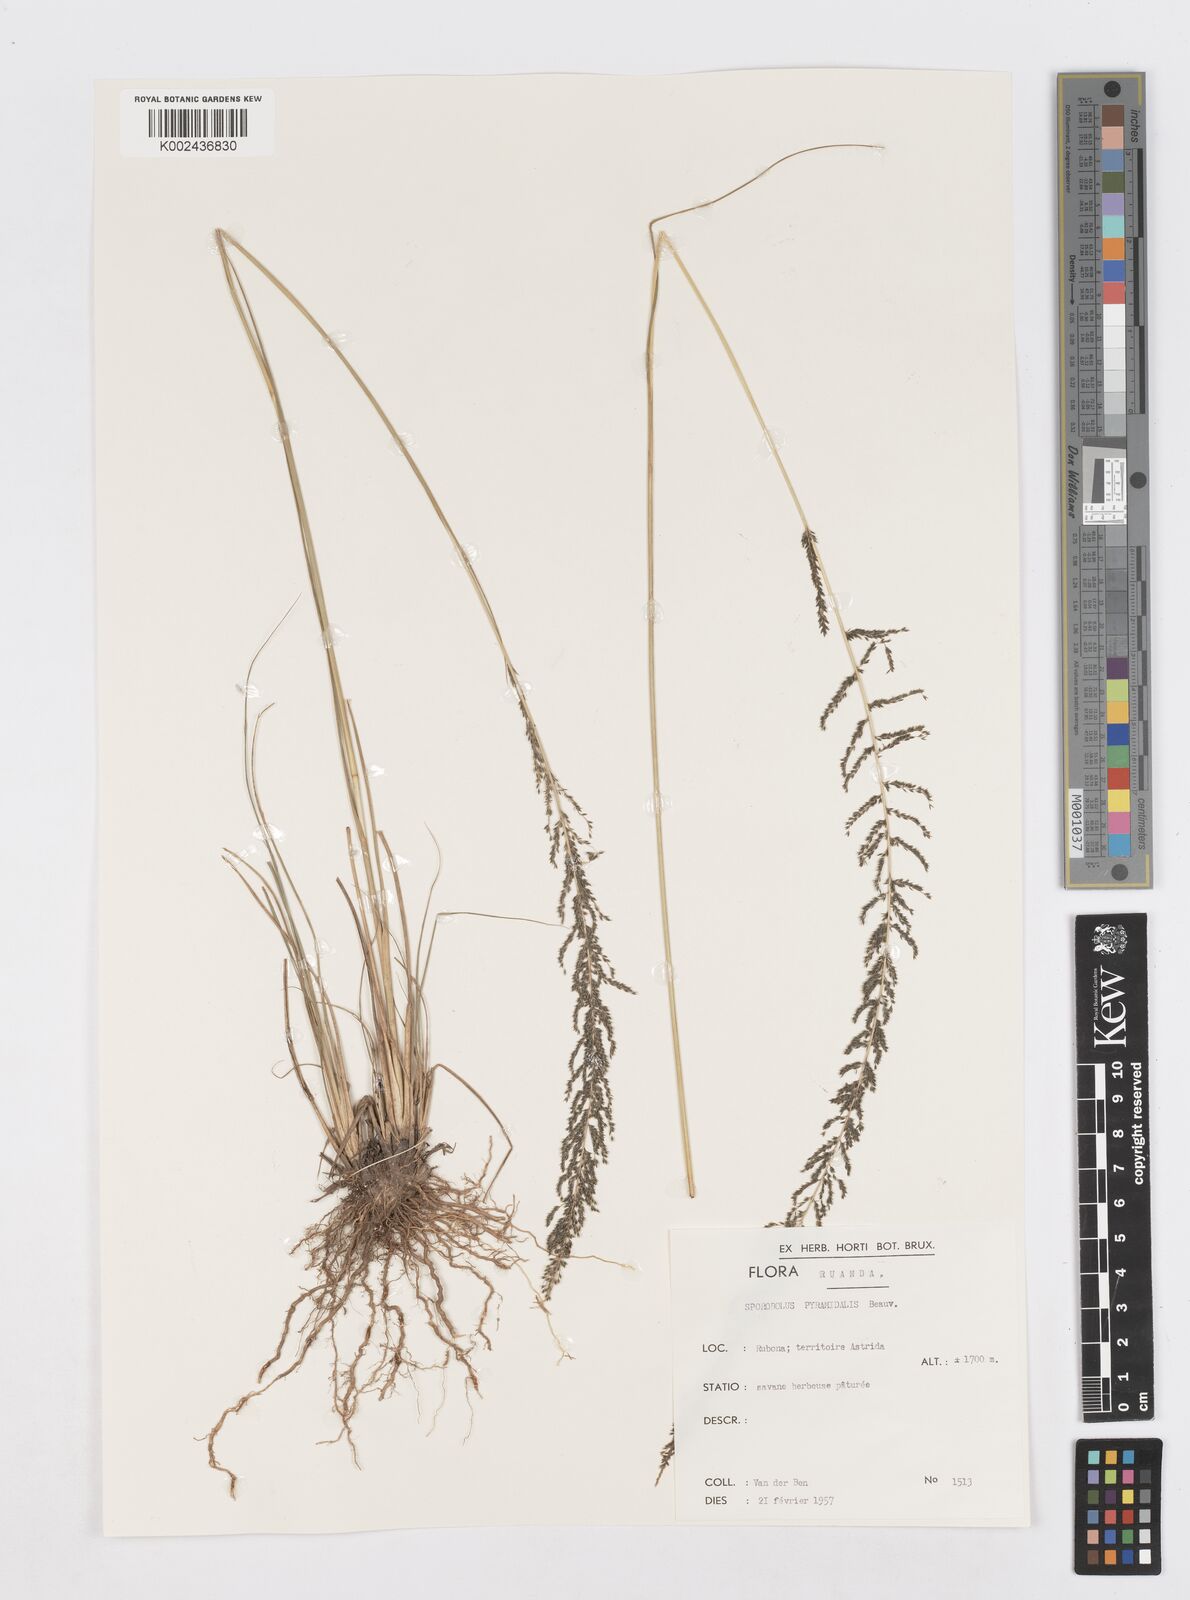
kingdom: Plantae
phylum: Tracheophyta
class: Liliopsida
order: Poales
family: Poaceae
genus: Sporobolus
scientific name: Sporobolus pyramidalis
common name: West indian dropseed
